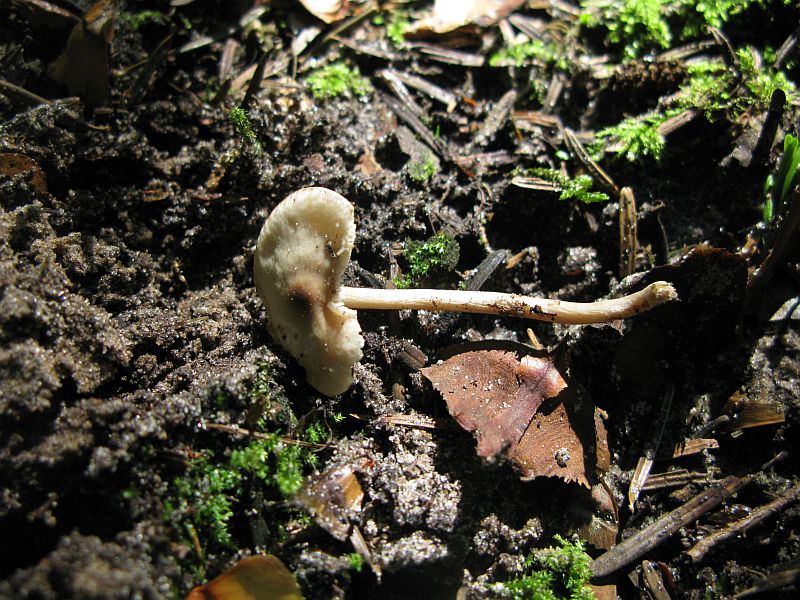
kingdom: Fungi
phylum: Basidiomycota
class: Agaricomycetes
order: Agaricales
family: Tricholomataceae
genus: Clitocybe
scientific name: Clitocybe fragrans
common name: vellugtende tragthat
